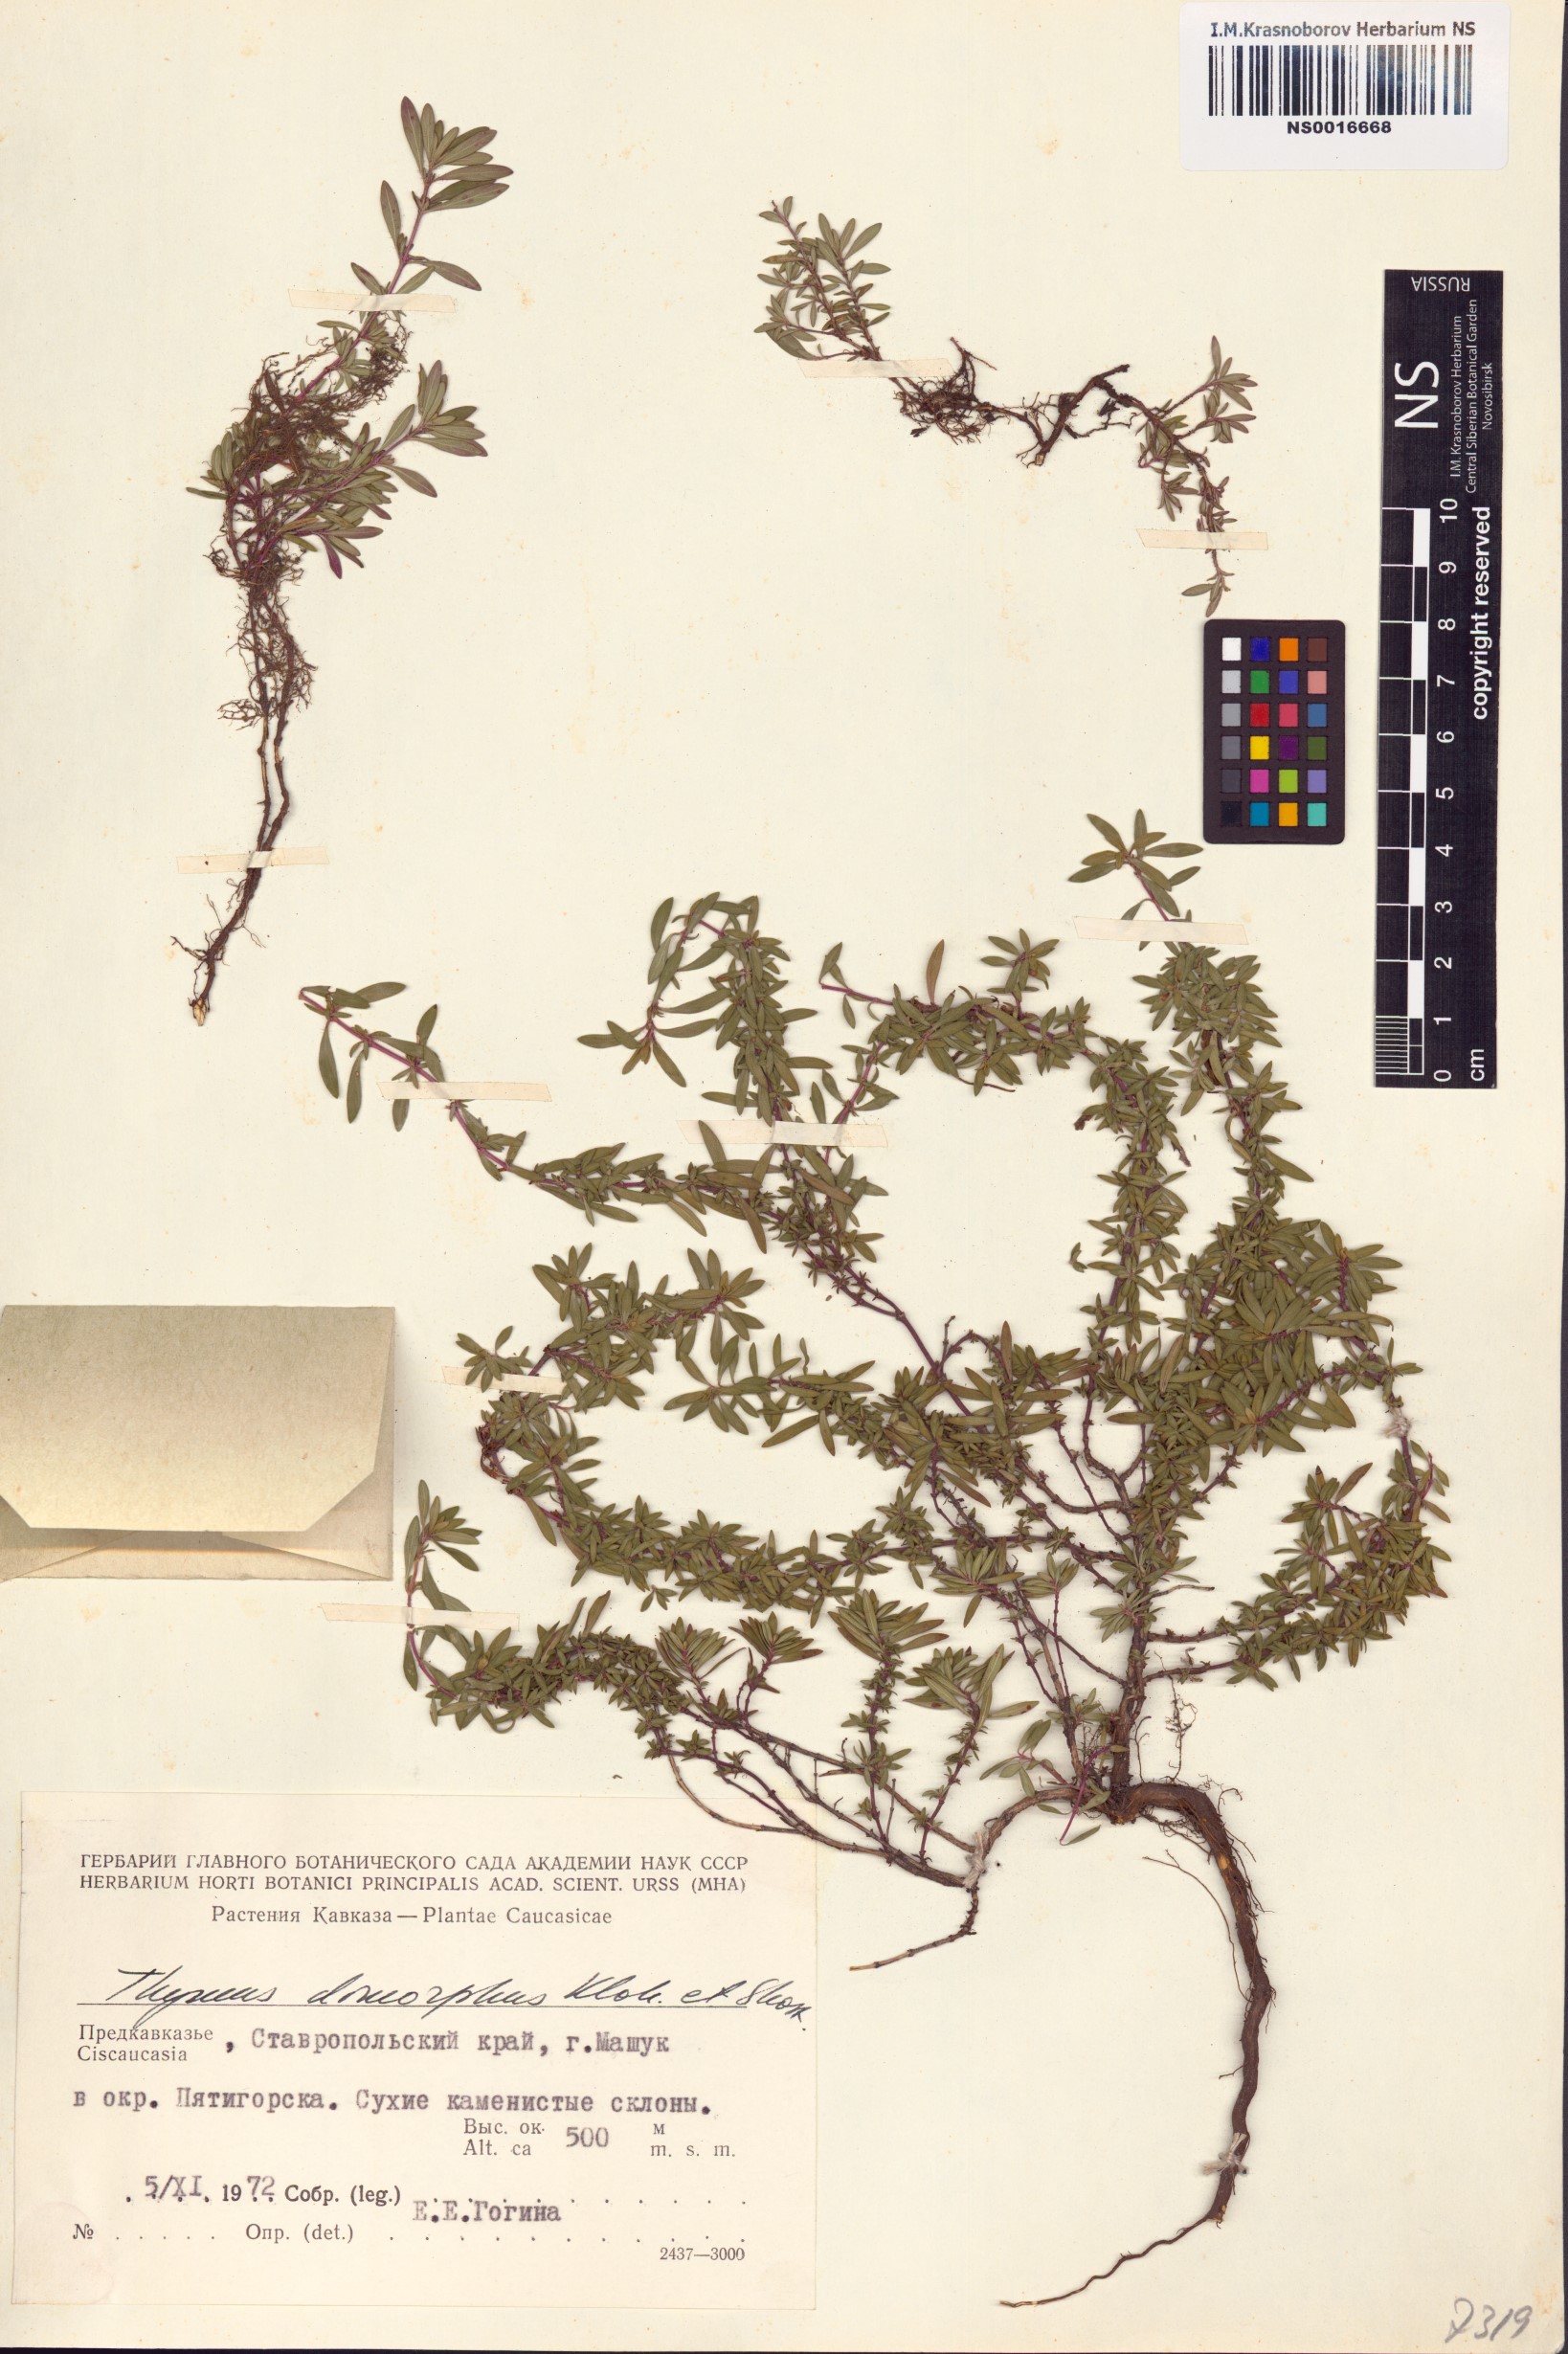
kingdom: Plantae
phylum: Tracheophyta
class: Magnoliopsida
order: Lamiales
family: Lamiaceae
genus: Thymus
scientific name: Thymus dimorphus
